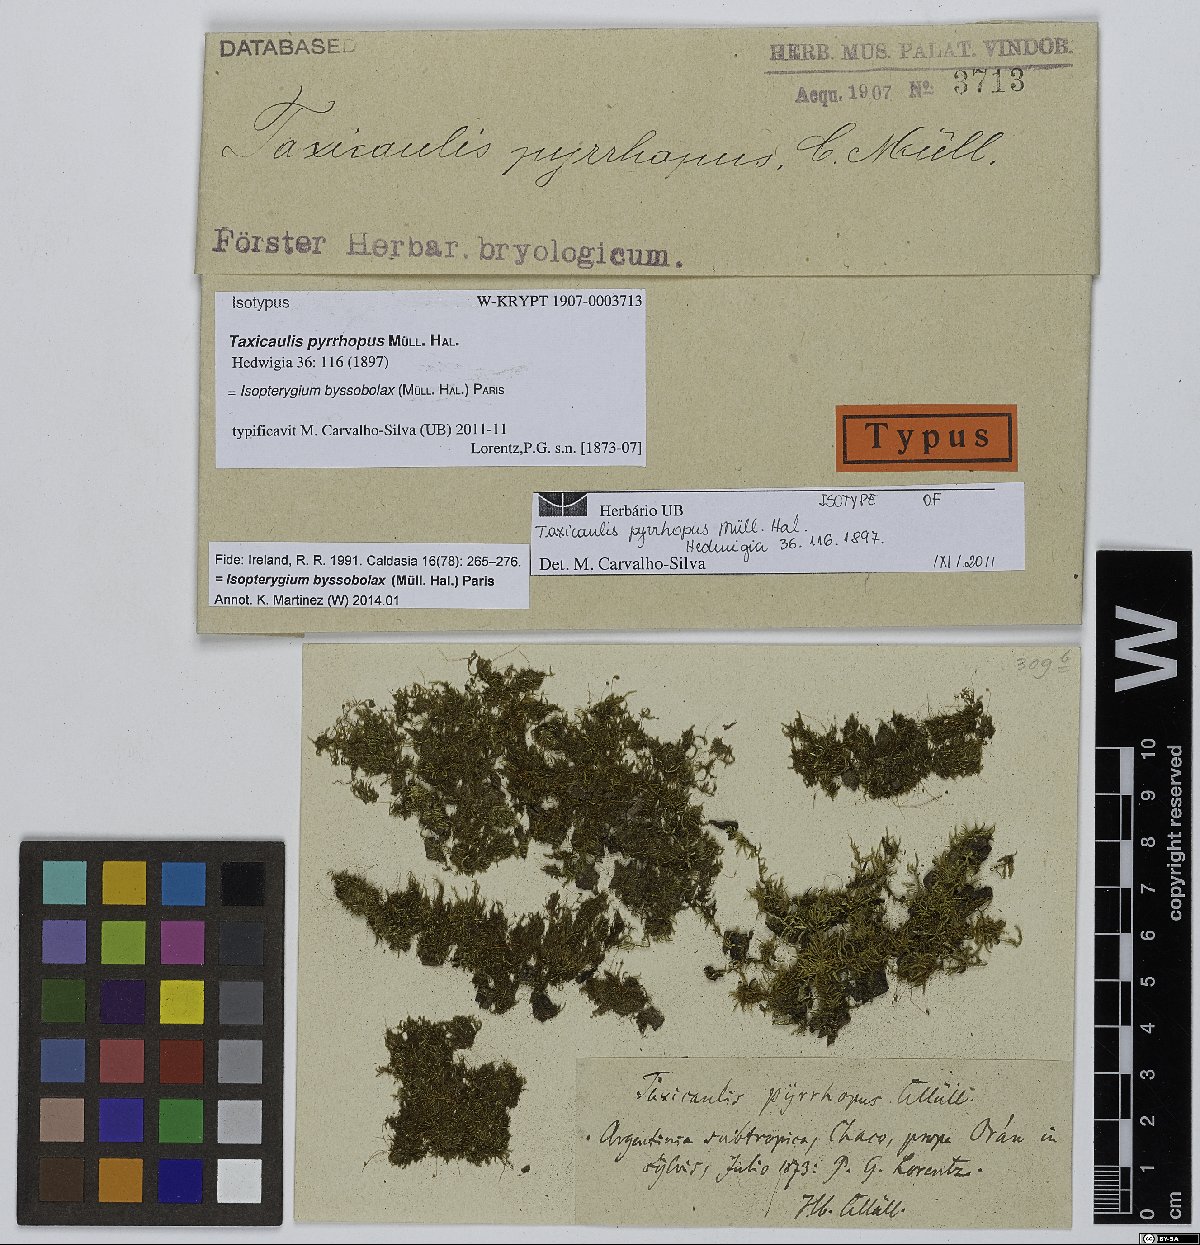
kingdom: Plantae
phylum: Bryophyta
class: Bryopsida
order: Hypnales
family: Pylaisiadelphaceae
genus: Isopterygium
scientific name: Isopterygium byssobolax
